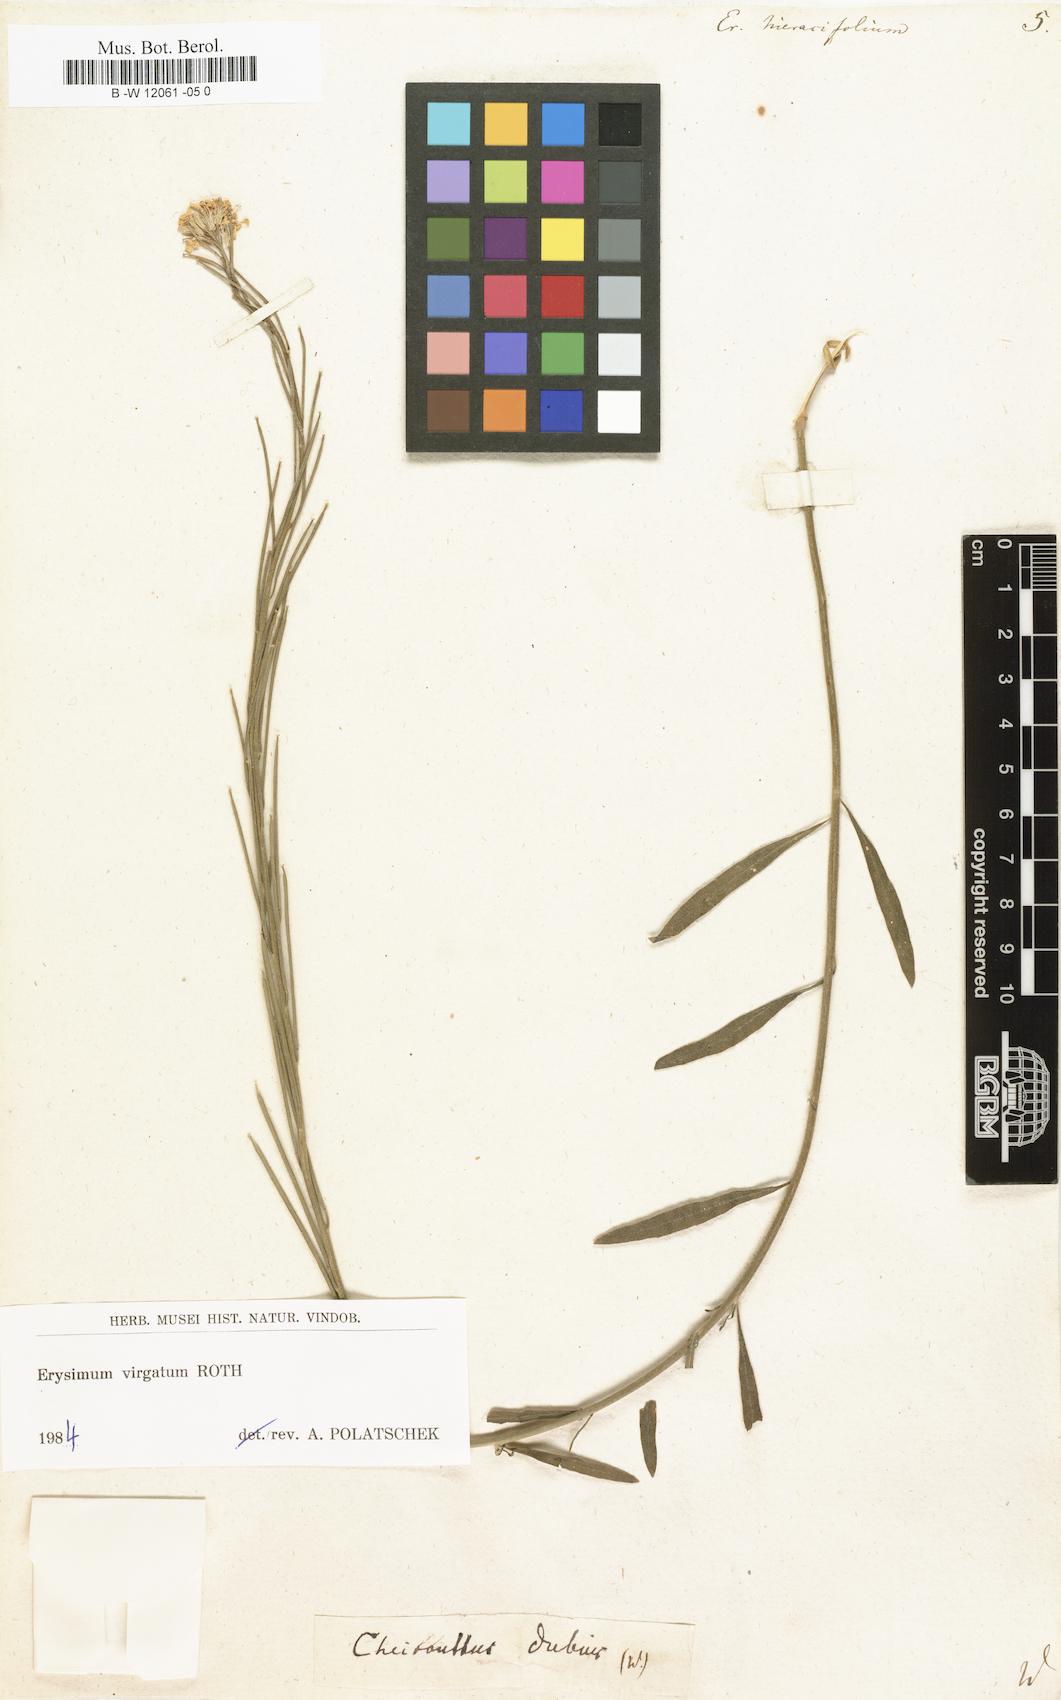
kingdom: Plantae
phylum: Tracheophyta
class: Magnoliopsida
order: Brassicales
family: Brassicaceae
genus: Erysimum
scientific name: Erysimum hieraciifolium
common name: European wallflower
